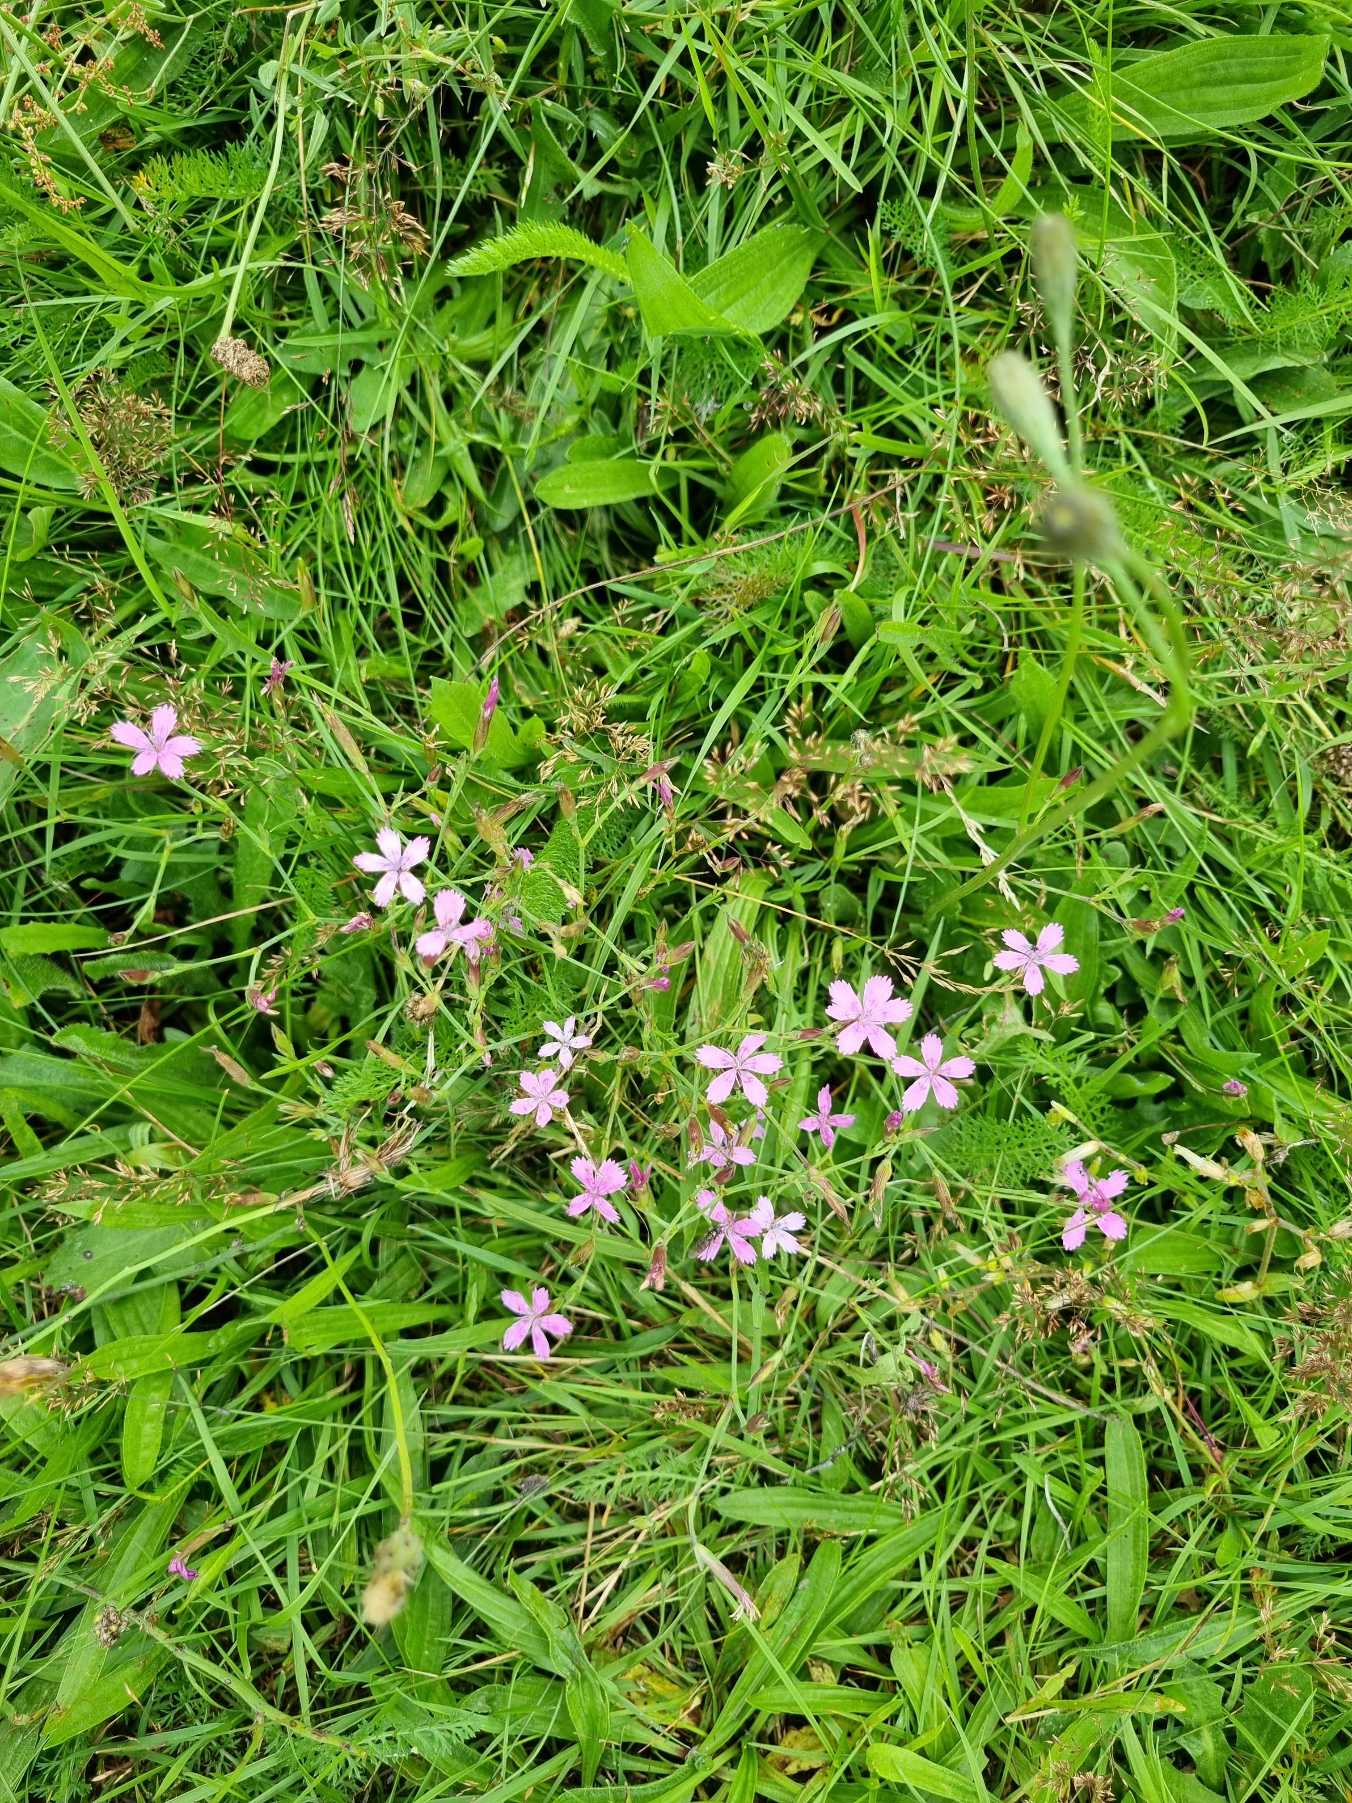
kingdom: Plantae
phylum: Tracheophyta
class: Magnoliopsida
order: Caryophyllales
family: Caryophyllaceae
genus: Dianthus
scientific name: Dianthus deltoides
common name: Bakke-nellike
